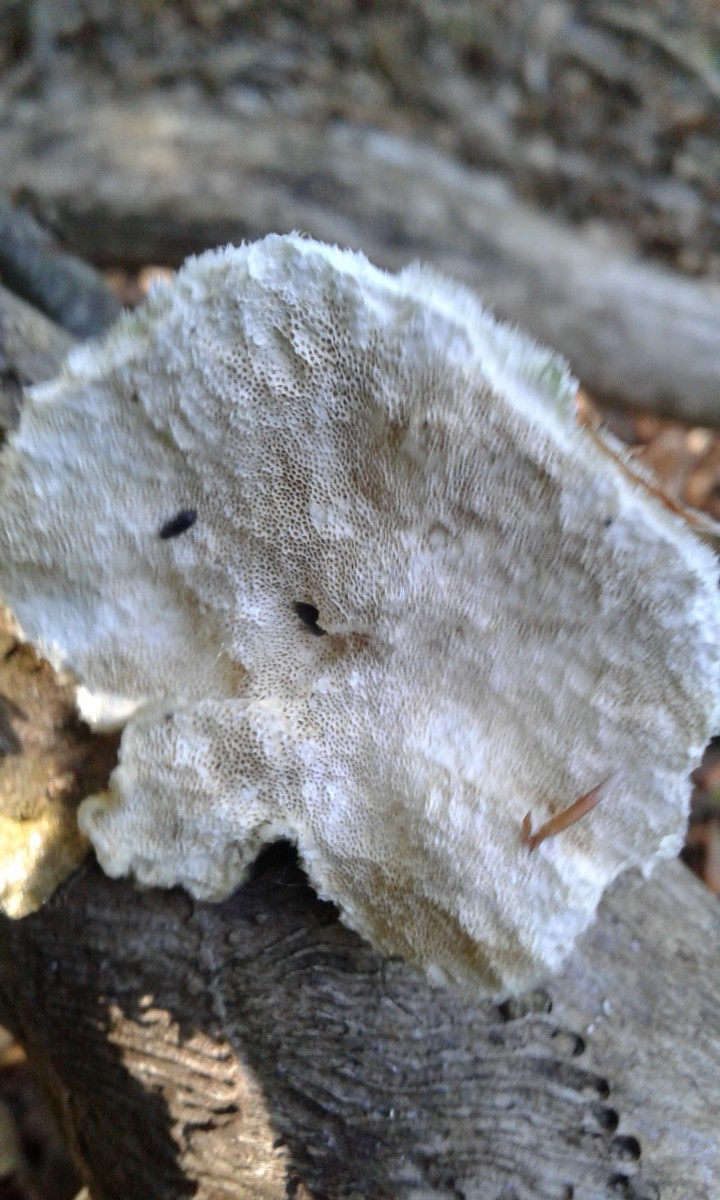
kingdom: Fungi
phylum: Basidiomycota
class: Agaricomycetes
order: Polyporales
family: Polyporaceae
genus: Trametes
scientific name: Trametes hirsuta
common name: håret læderporesvamp
